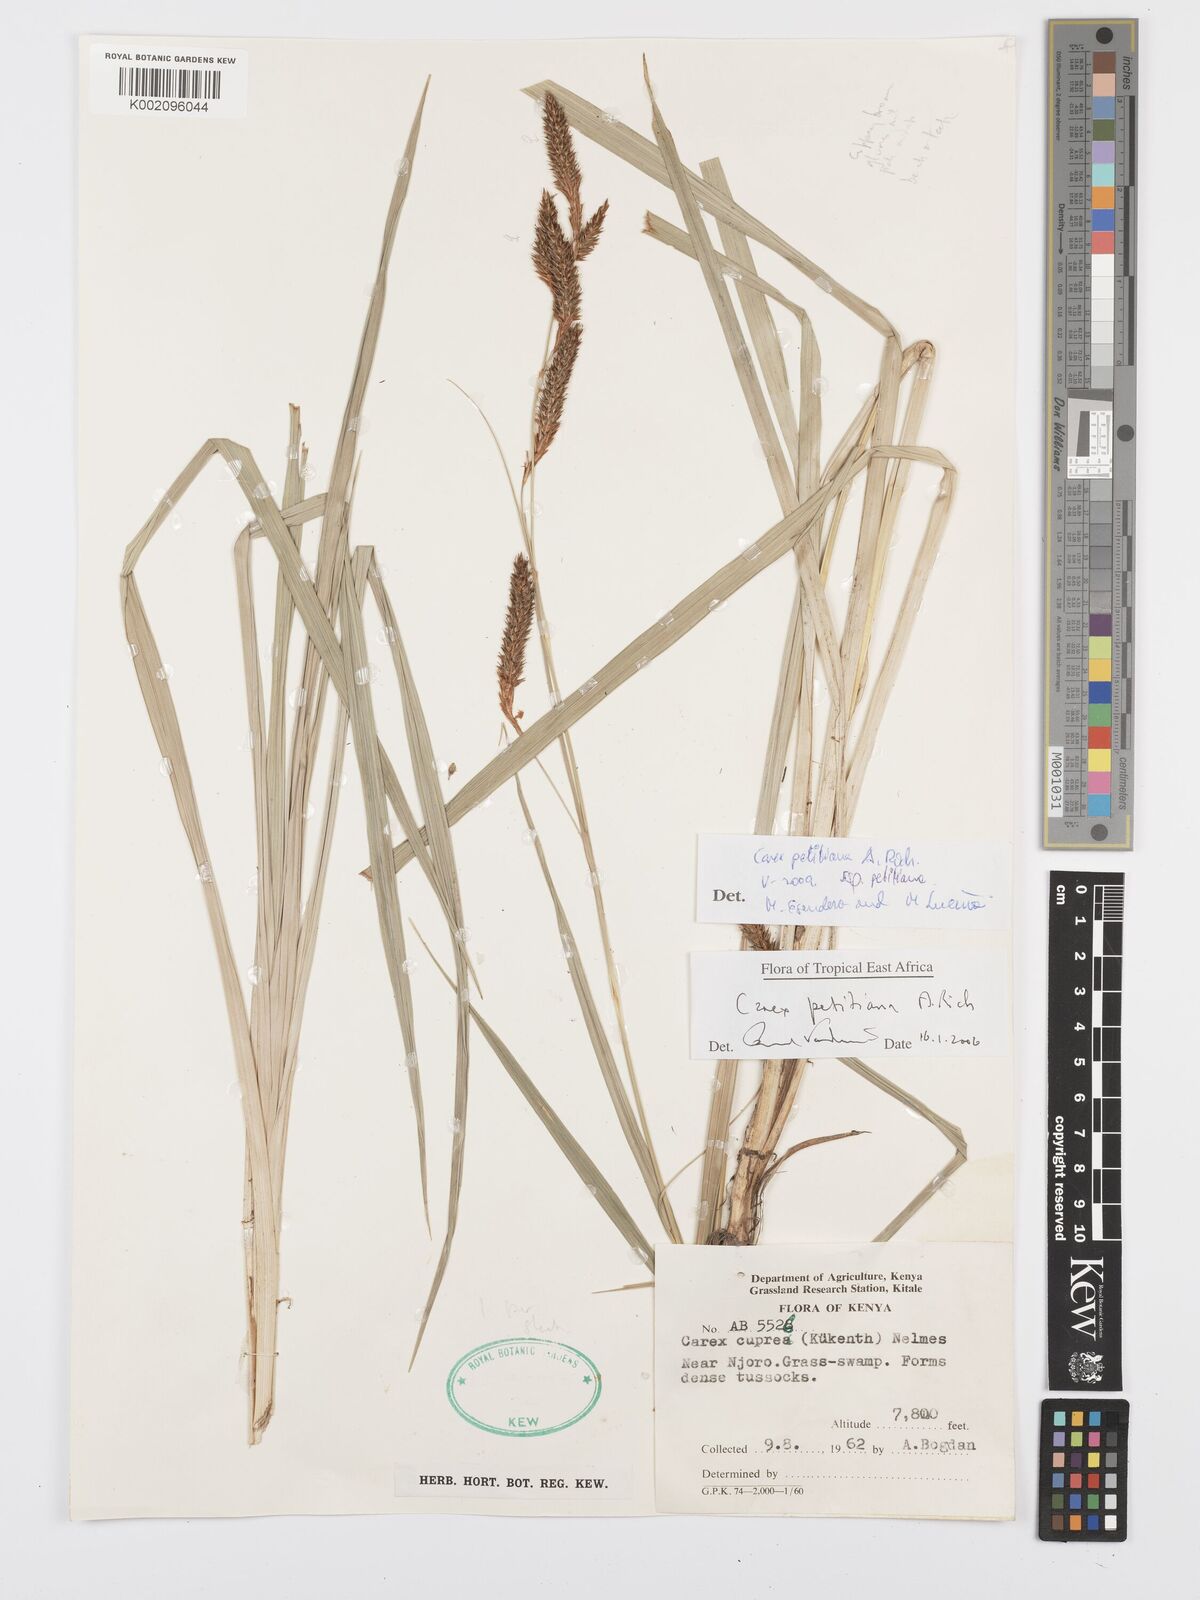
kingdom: Plantae
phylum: Tracheophyta
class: Liliopsida
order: Poales
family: Cyperaceae
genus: Carex
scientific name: Carex petitiana
